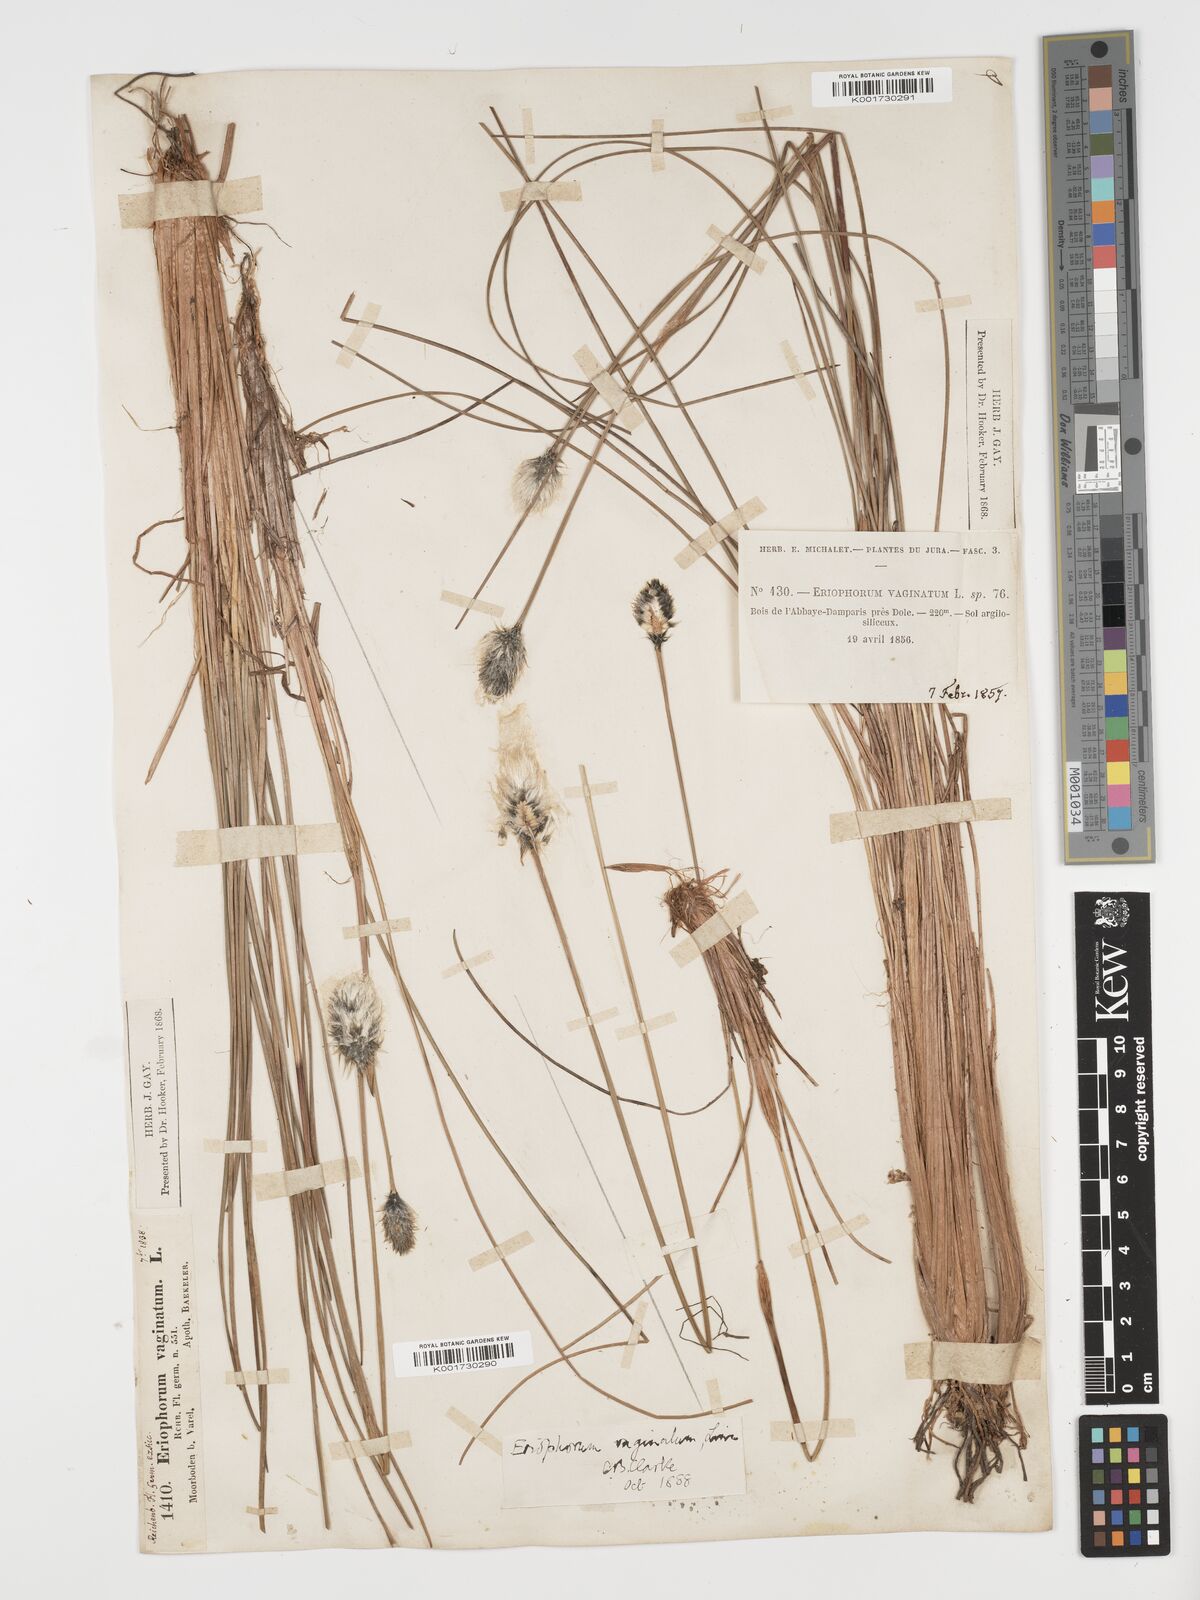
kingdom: Plantae
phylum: Tracheophyta
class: Liliopsida
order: Poales
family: Cyperaceae
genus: Eriophorum
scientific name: Eriophorum vaginatum
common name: Hare's-tail cottongrass
